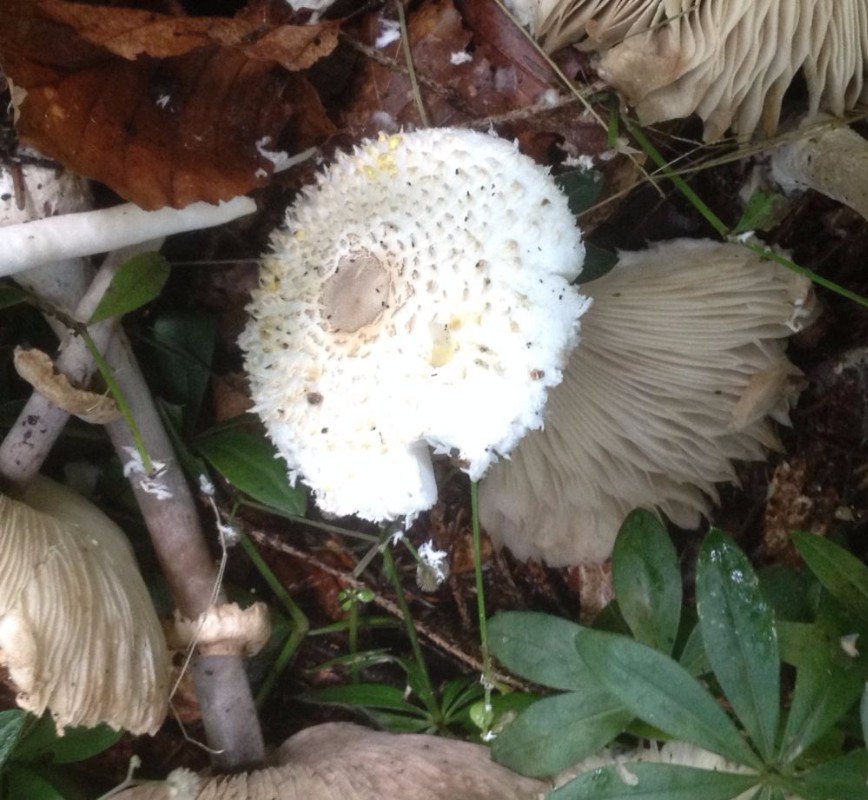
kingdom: Fungi
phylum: Basidiomycota
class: Agaricomycetes
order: Agaricales
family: Agaricaceae
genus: Leucoagaricus
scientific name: Leucoagaricus nympharum
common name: gran-silkehat
